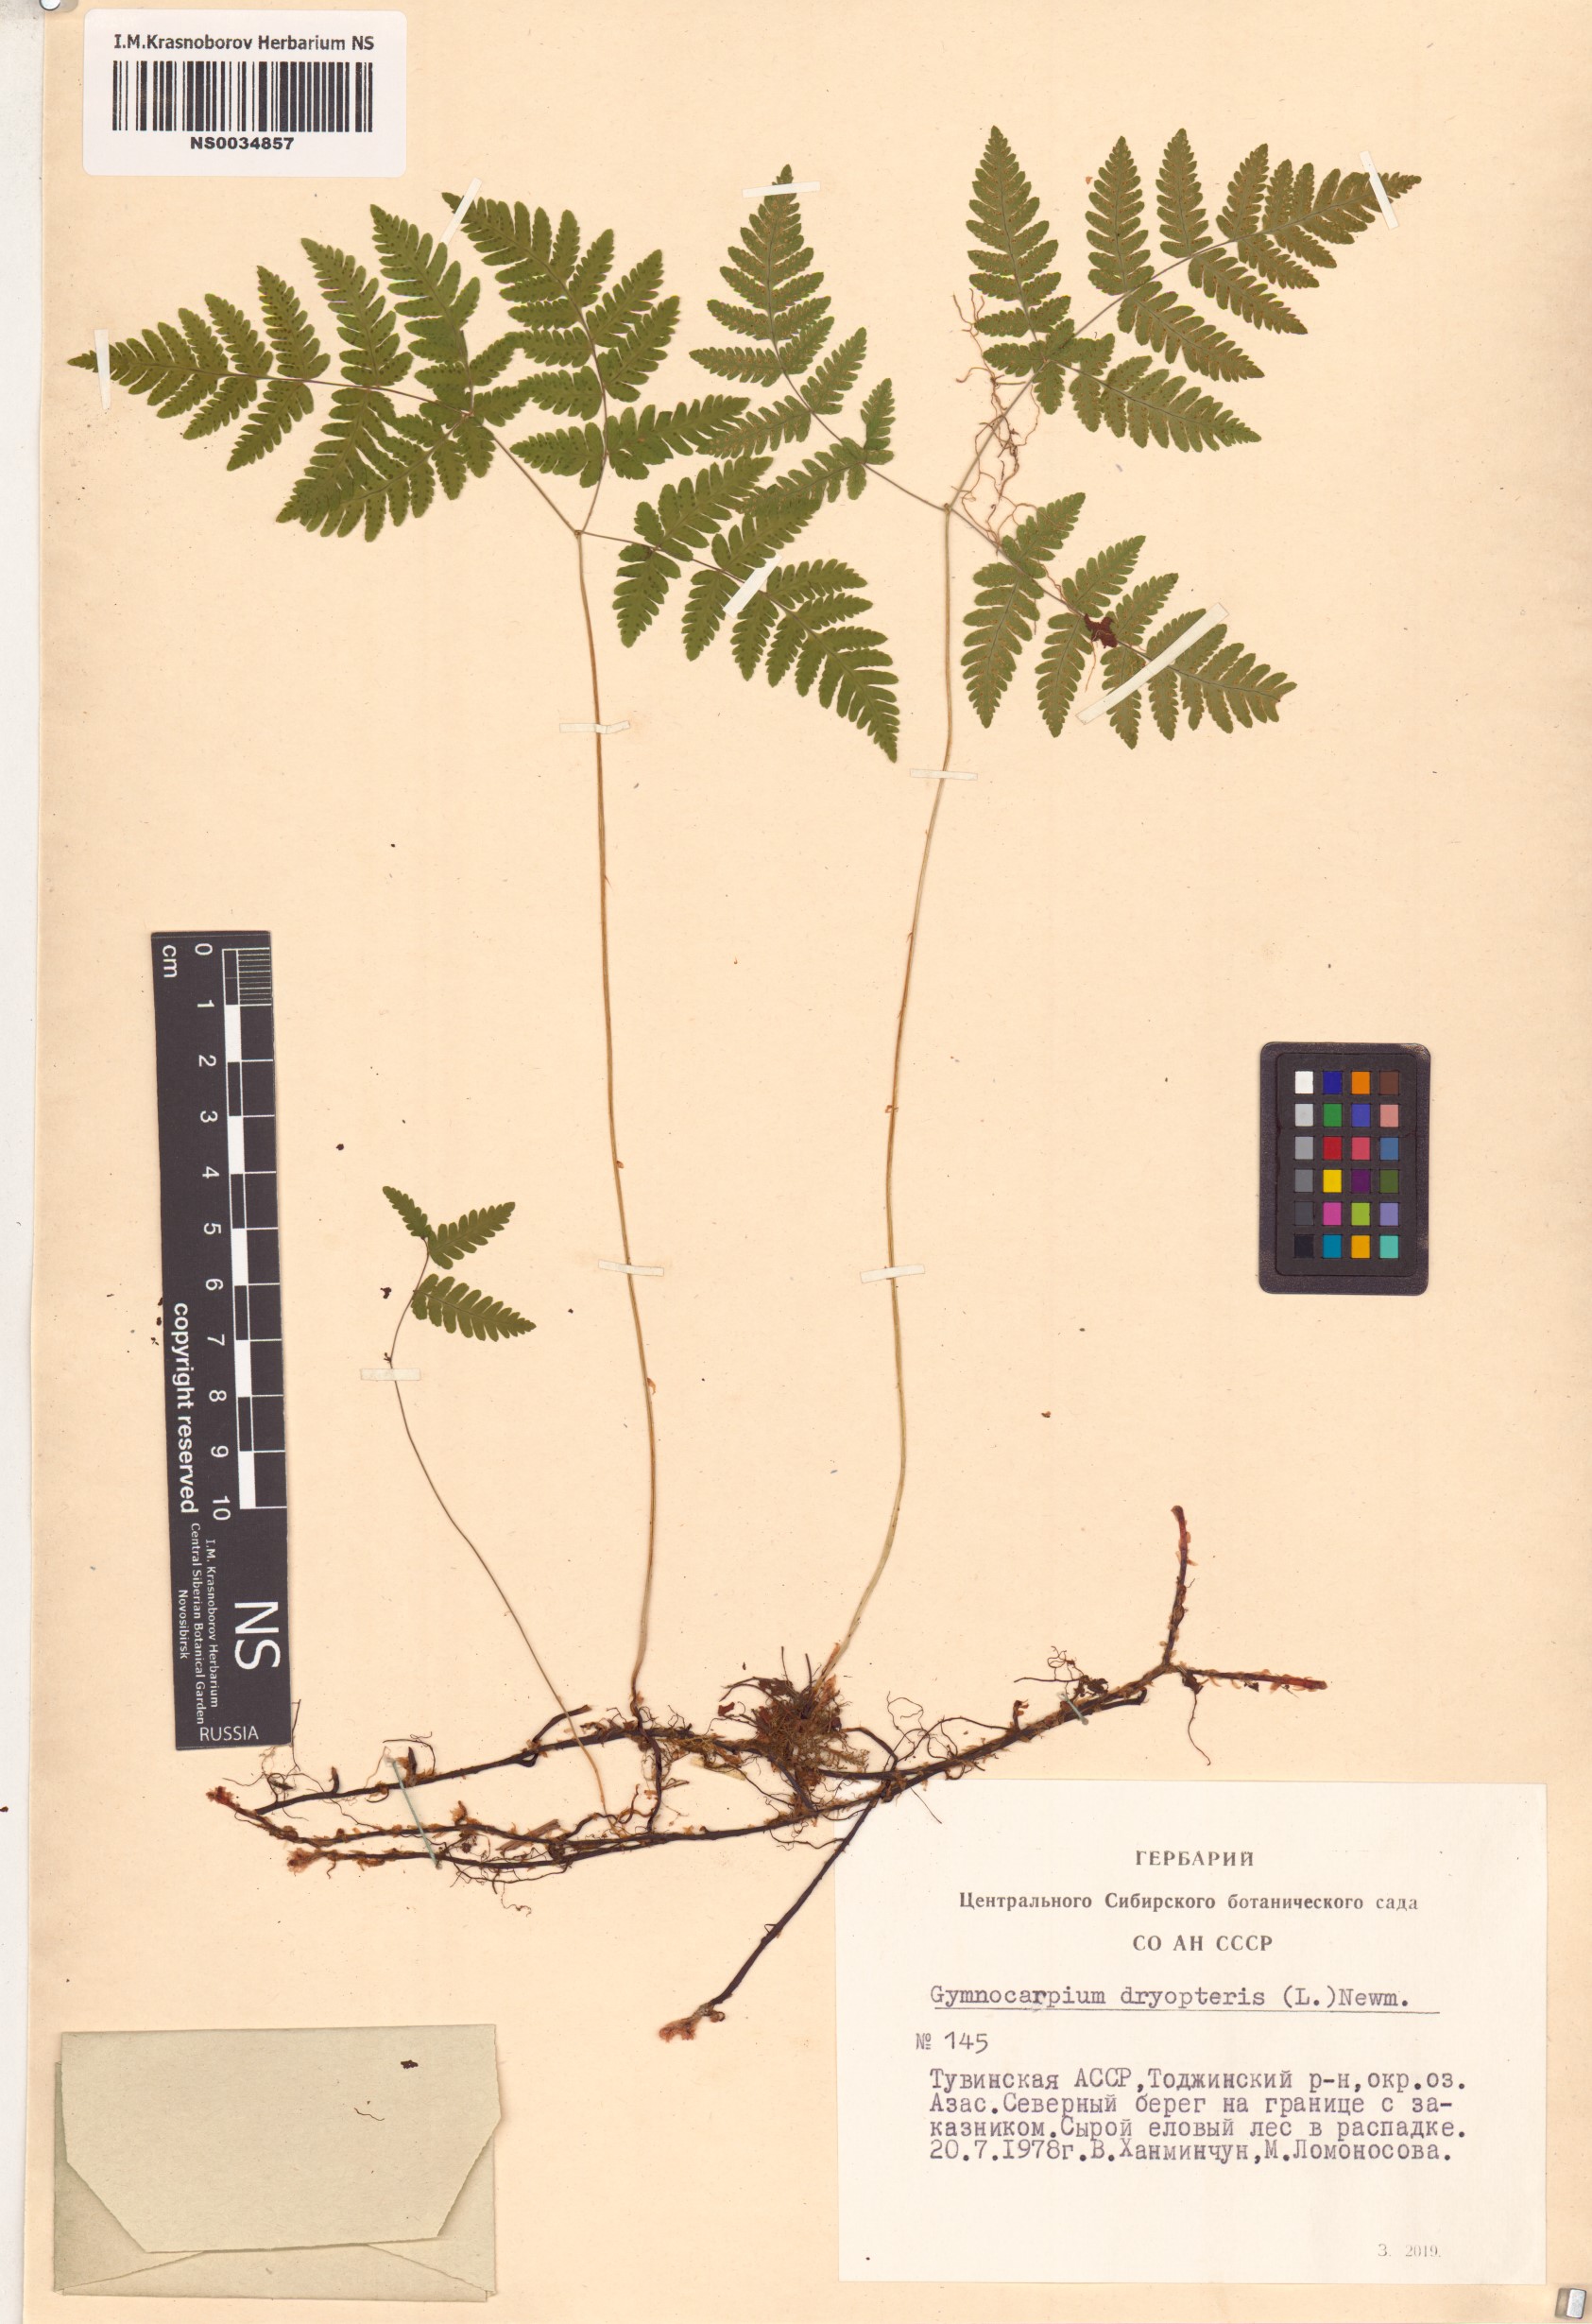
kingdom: Plantae
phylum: Tracheophyta
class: Polypodiopsida
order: Polypodiales
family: Cystopteridaceae
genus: Gymnocarpium
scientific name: Gymnocarpium dryopteris
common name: Oak fern
